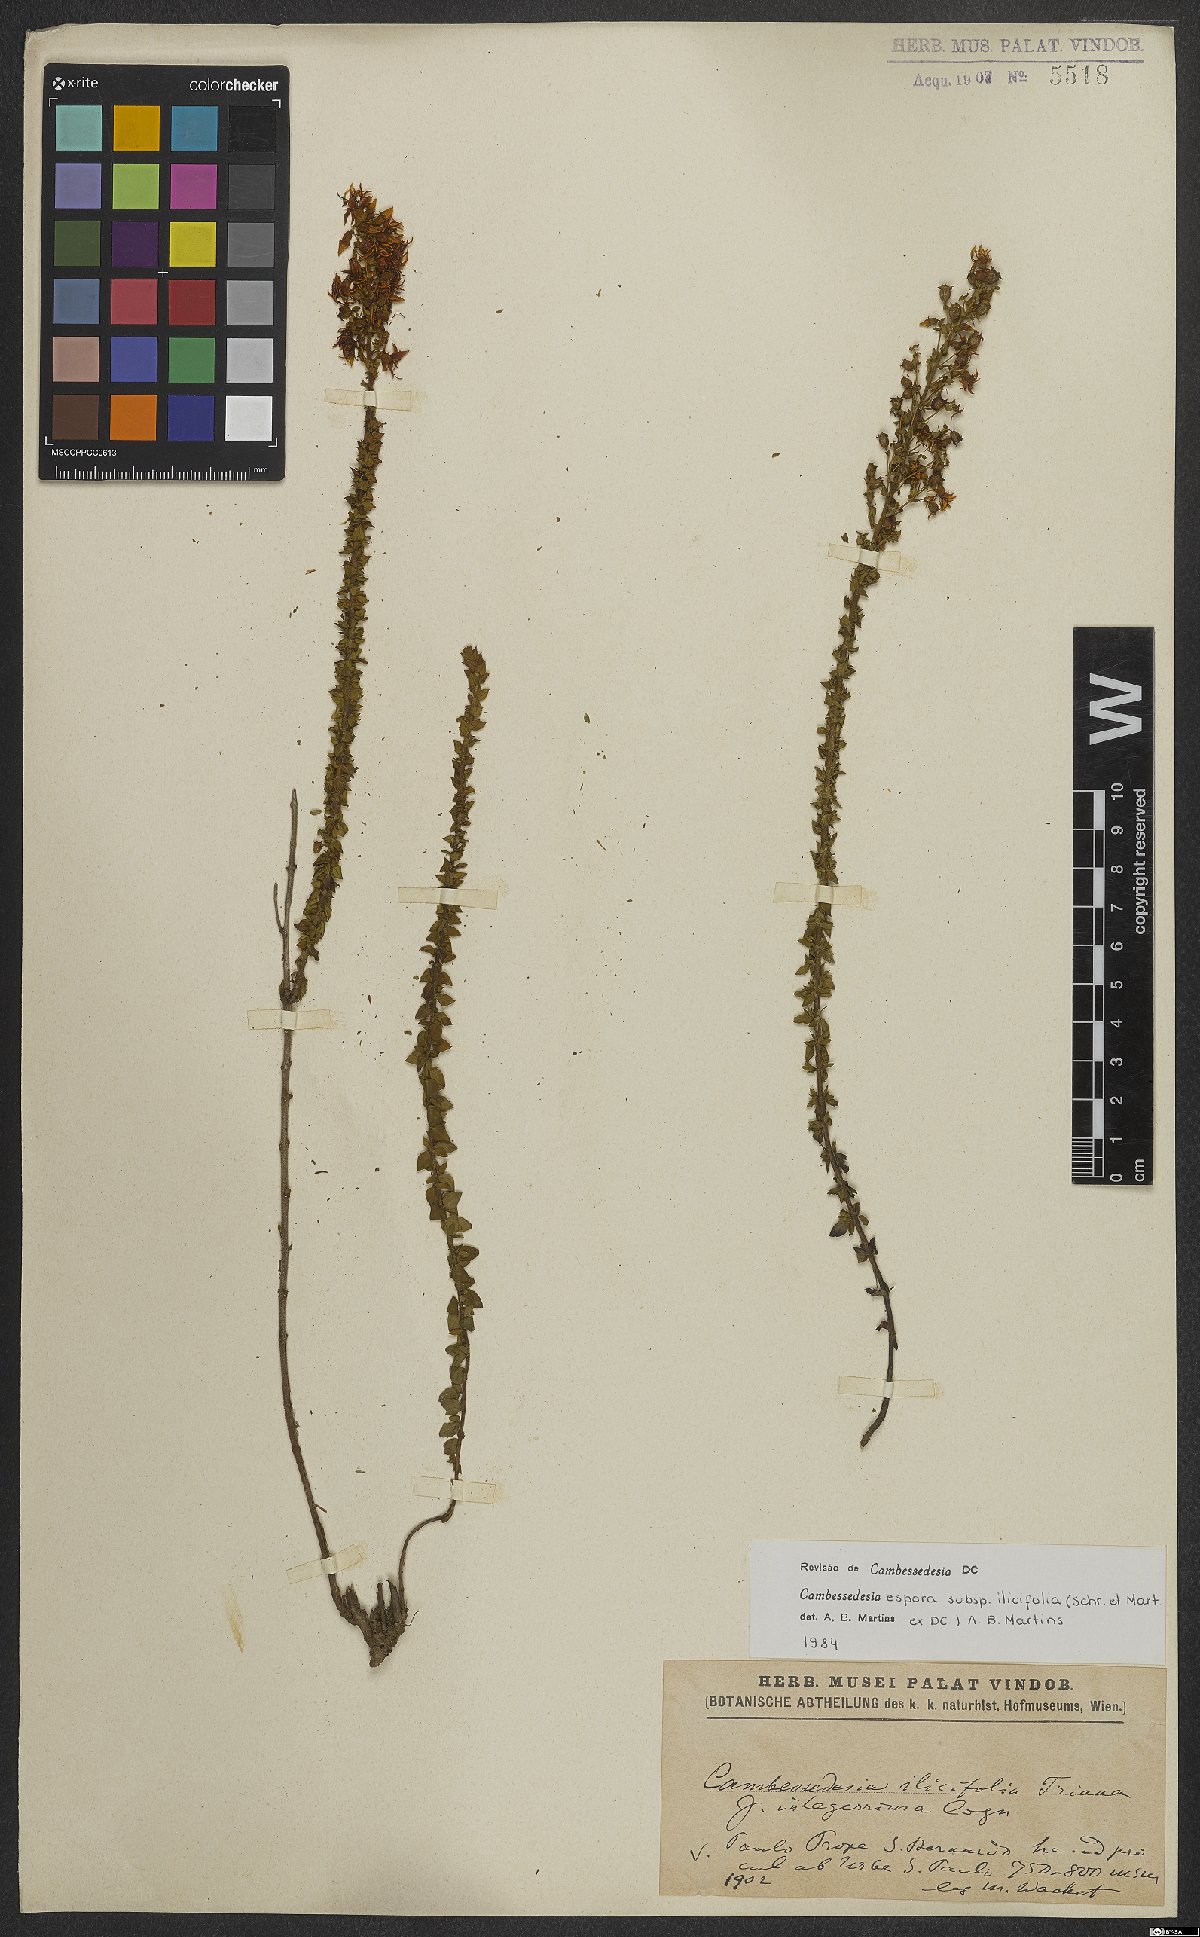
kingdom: Plantae
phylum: Tracheophyta
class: Magnoliopsida
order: Myrtales
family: Melastomataceae
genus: Cambessedesia
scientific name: Cambessedesia espora
